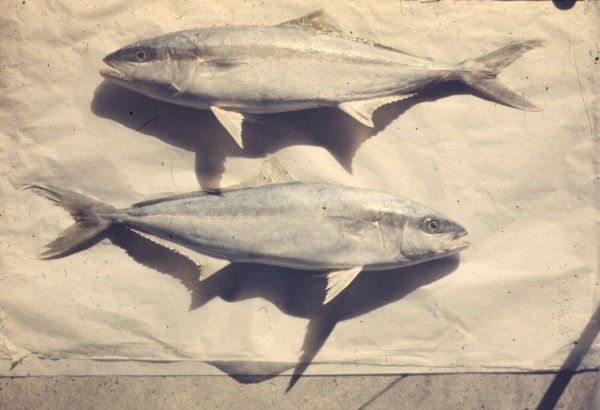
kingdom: Animalia
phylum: Chordata
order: Perciformes
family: Carangidae
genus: Seriola
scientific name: Seriola lalandi
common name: Yellowtail kingfish
